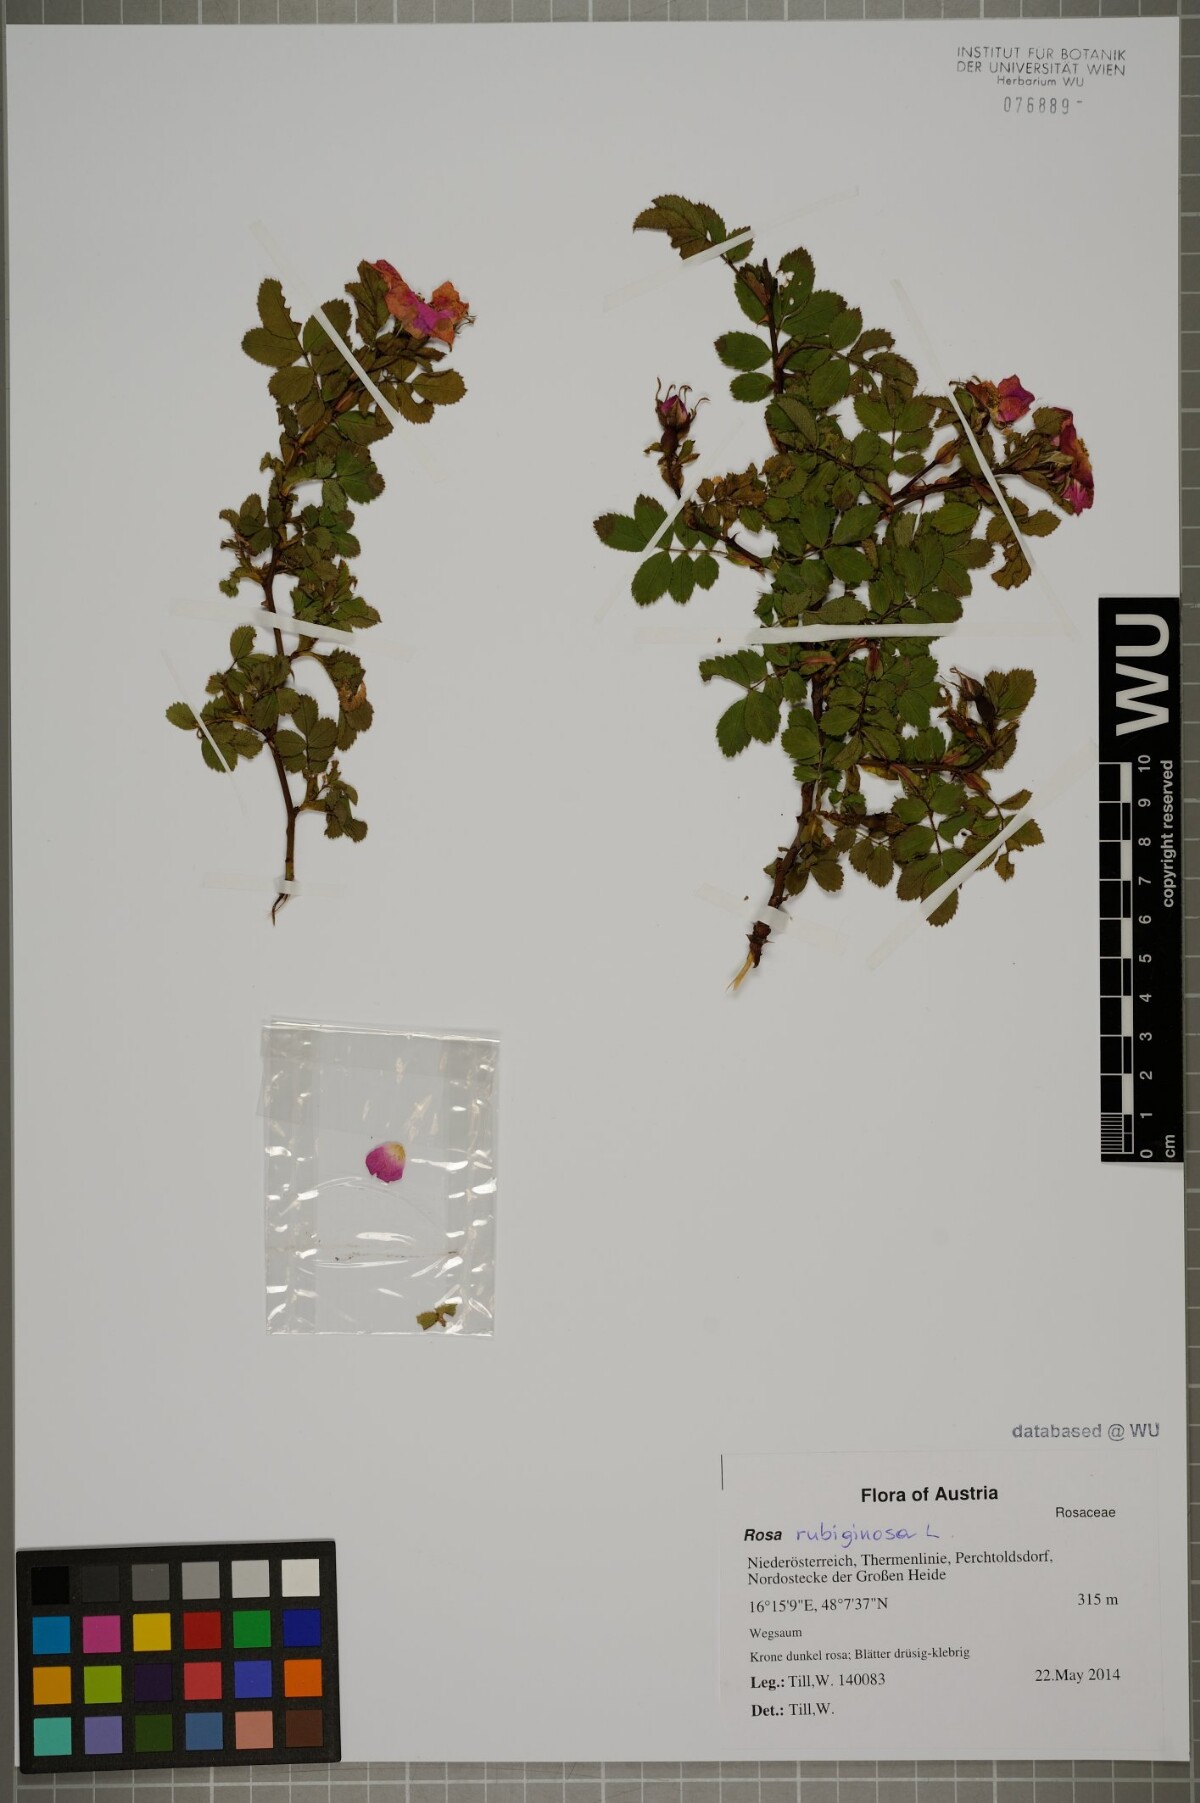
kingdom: Plantae
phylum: Tracheophyta
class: Magnoliopsida
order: Rosales
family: Rosaceae
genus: Rosa
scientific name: Rosa rubiginosa
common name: Sweet-briar
